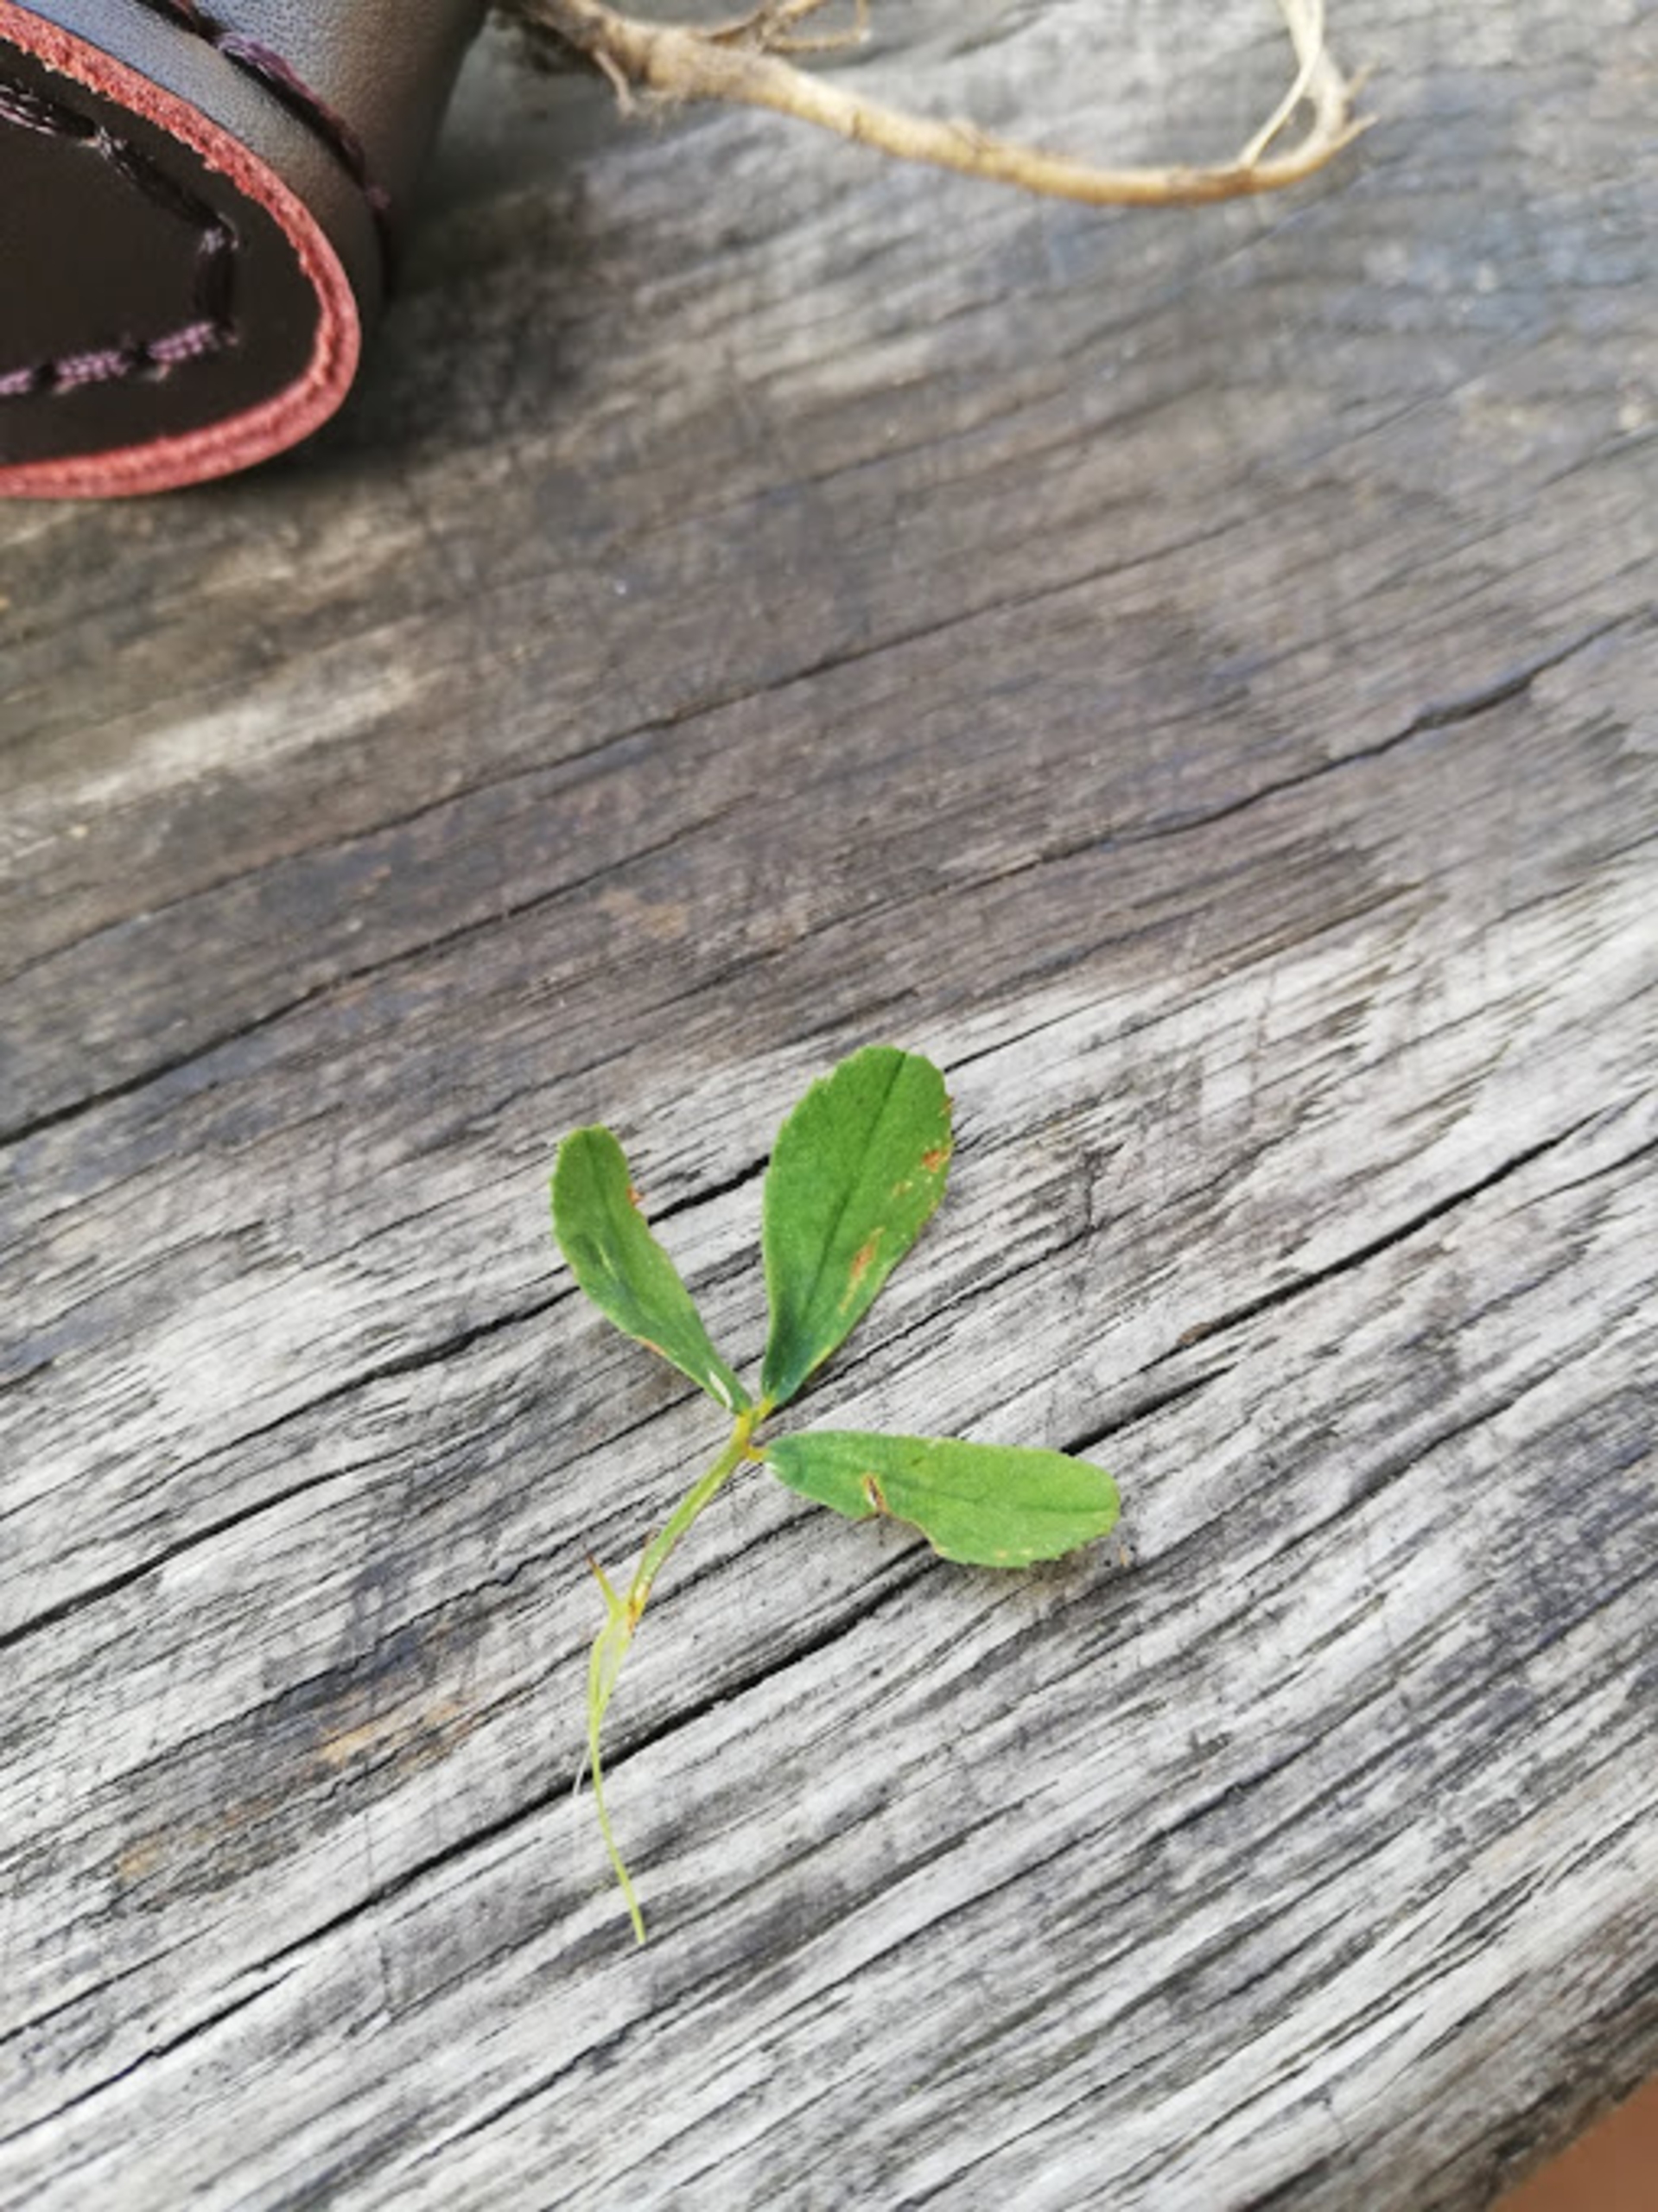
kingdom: Plantae
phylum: Tracheophyta
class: Magnoliopsida
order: Fabales
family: Fabaceae
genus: Melilotus
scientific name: Melilotus officinalis
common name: Mark-stenkløver
